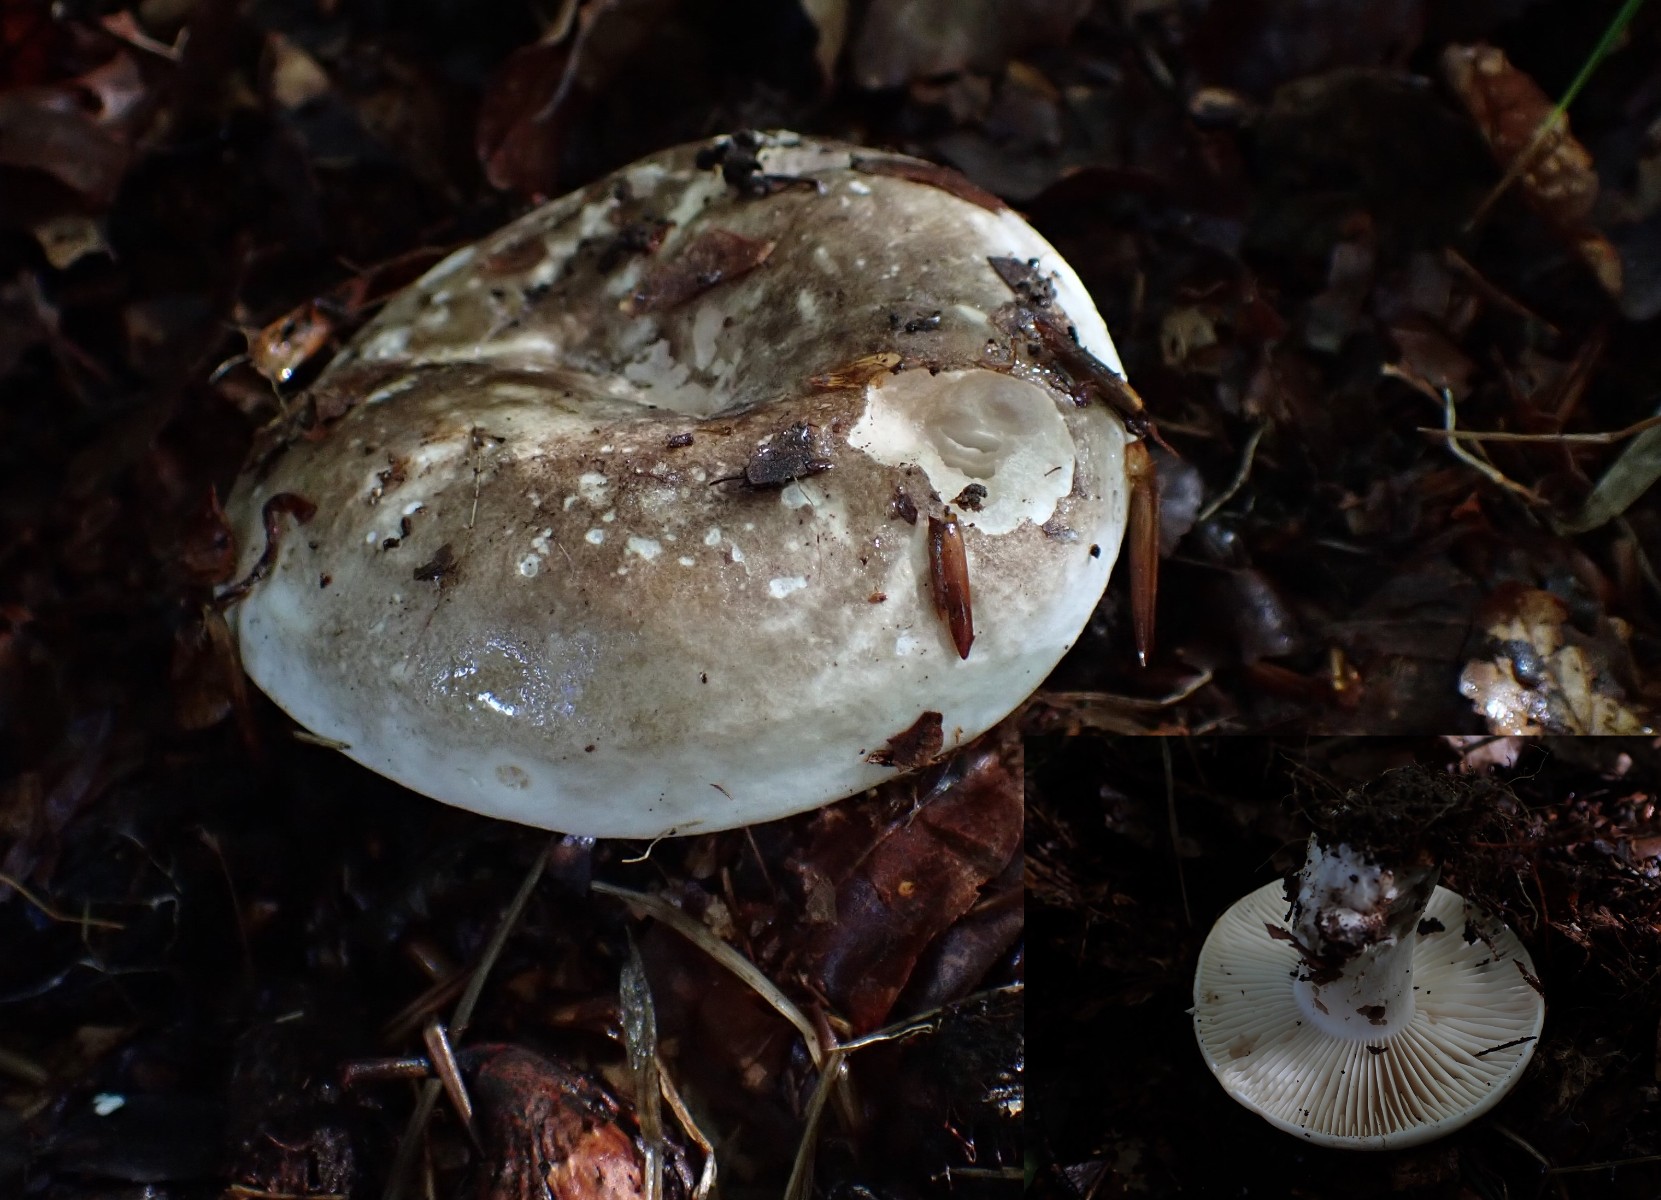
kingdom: Fungi
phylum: Basidiomycota
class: Agaricomycetes
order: Russulales
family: Russulaceae
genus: Russula
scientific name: Russula adusta
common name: sværtende skørhat
